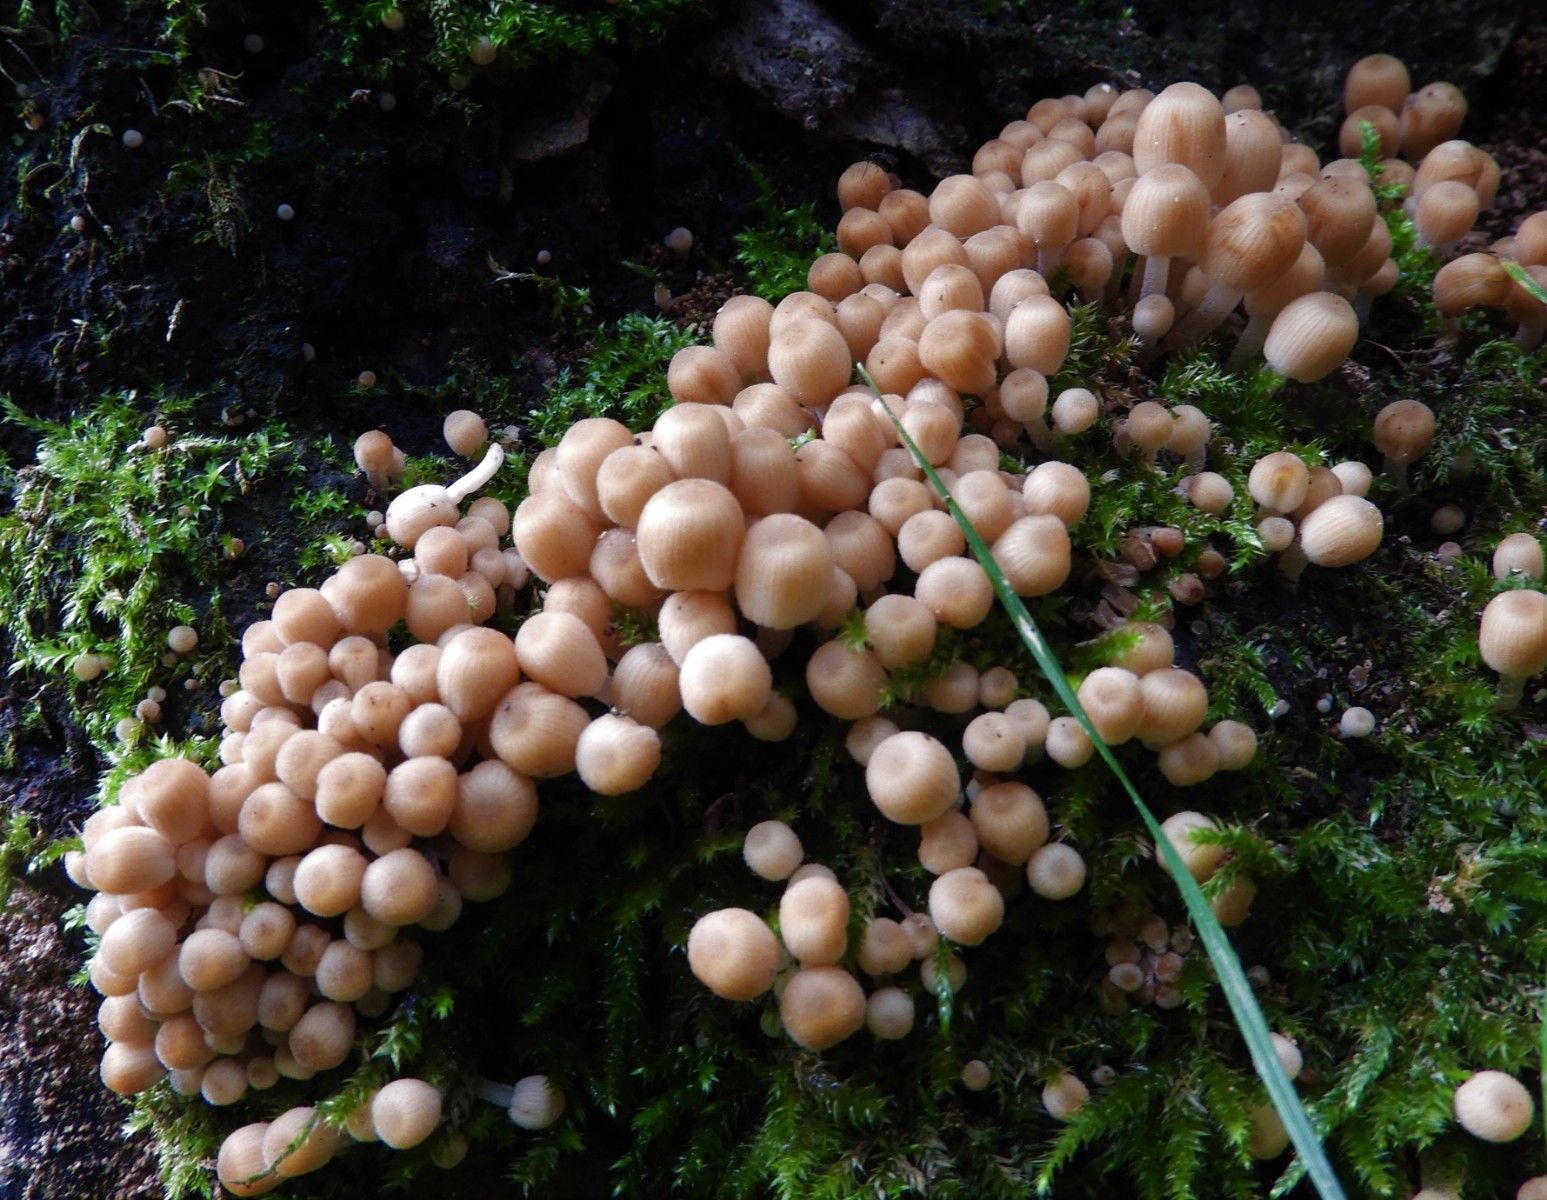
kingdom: Fungi
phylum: Basidiomycota
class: Agaricomycetes
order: Agaricales
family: Psathyrellaceae
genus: Coprinellus
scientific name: Coprinellus disseminatus
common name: bredsået blækhat
